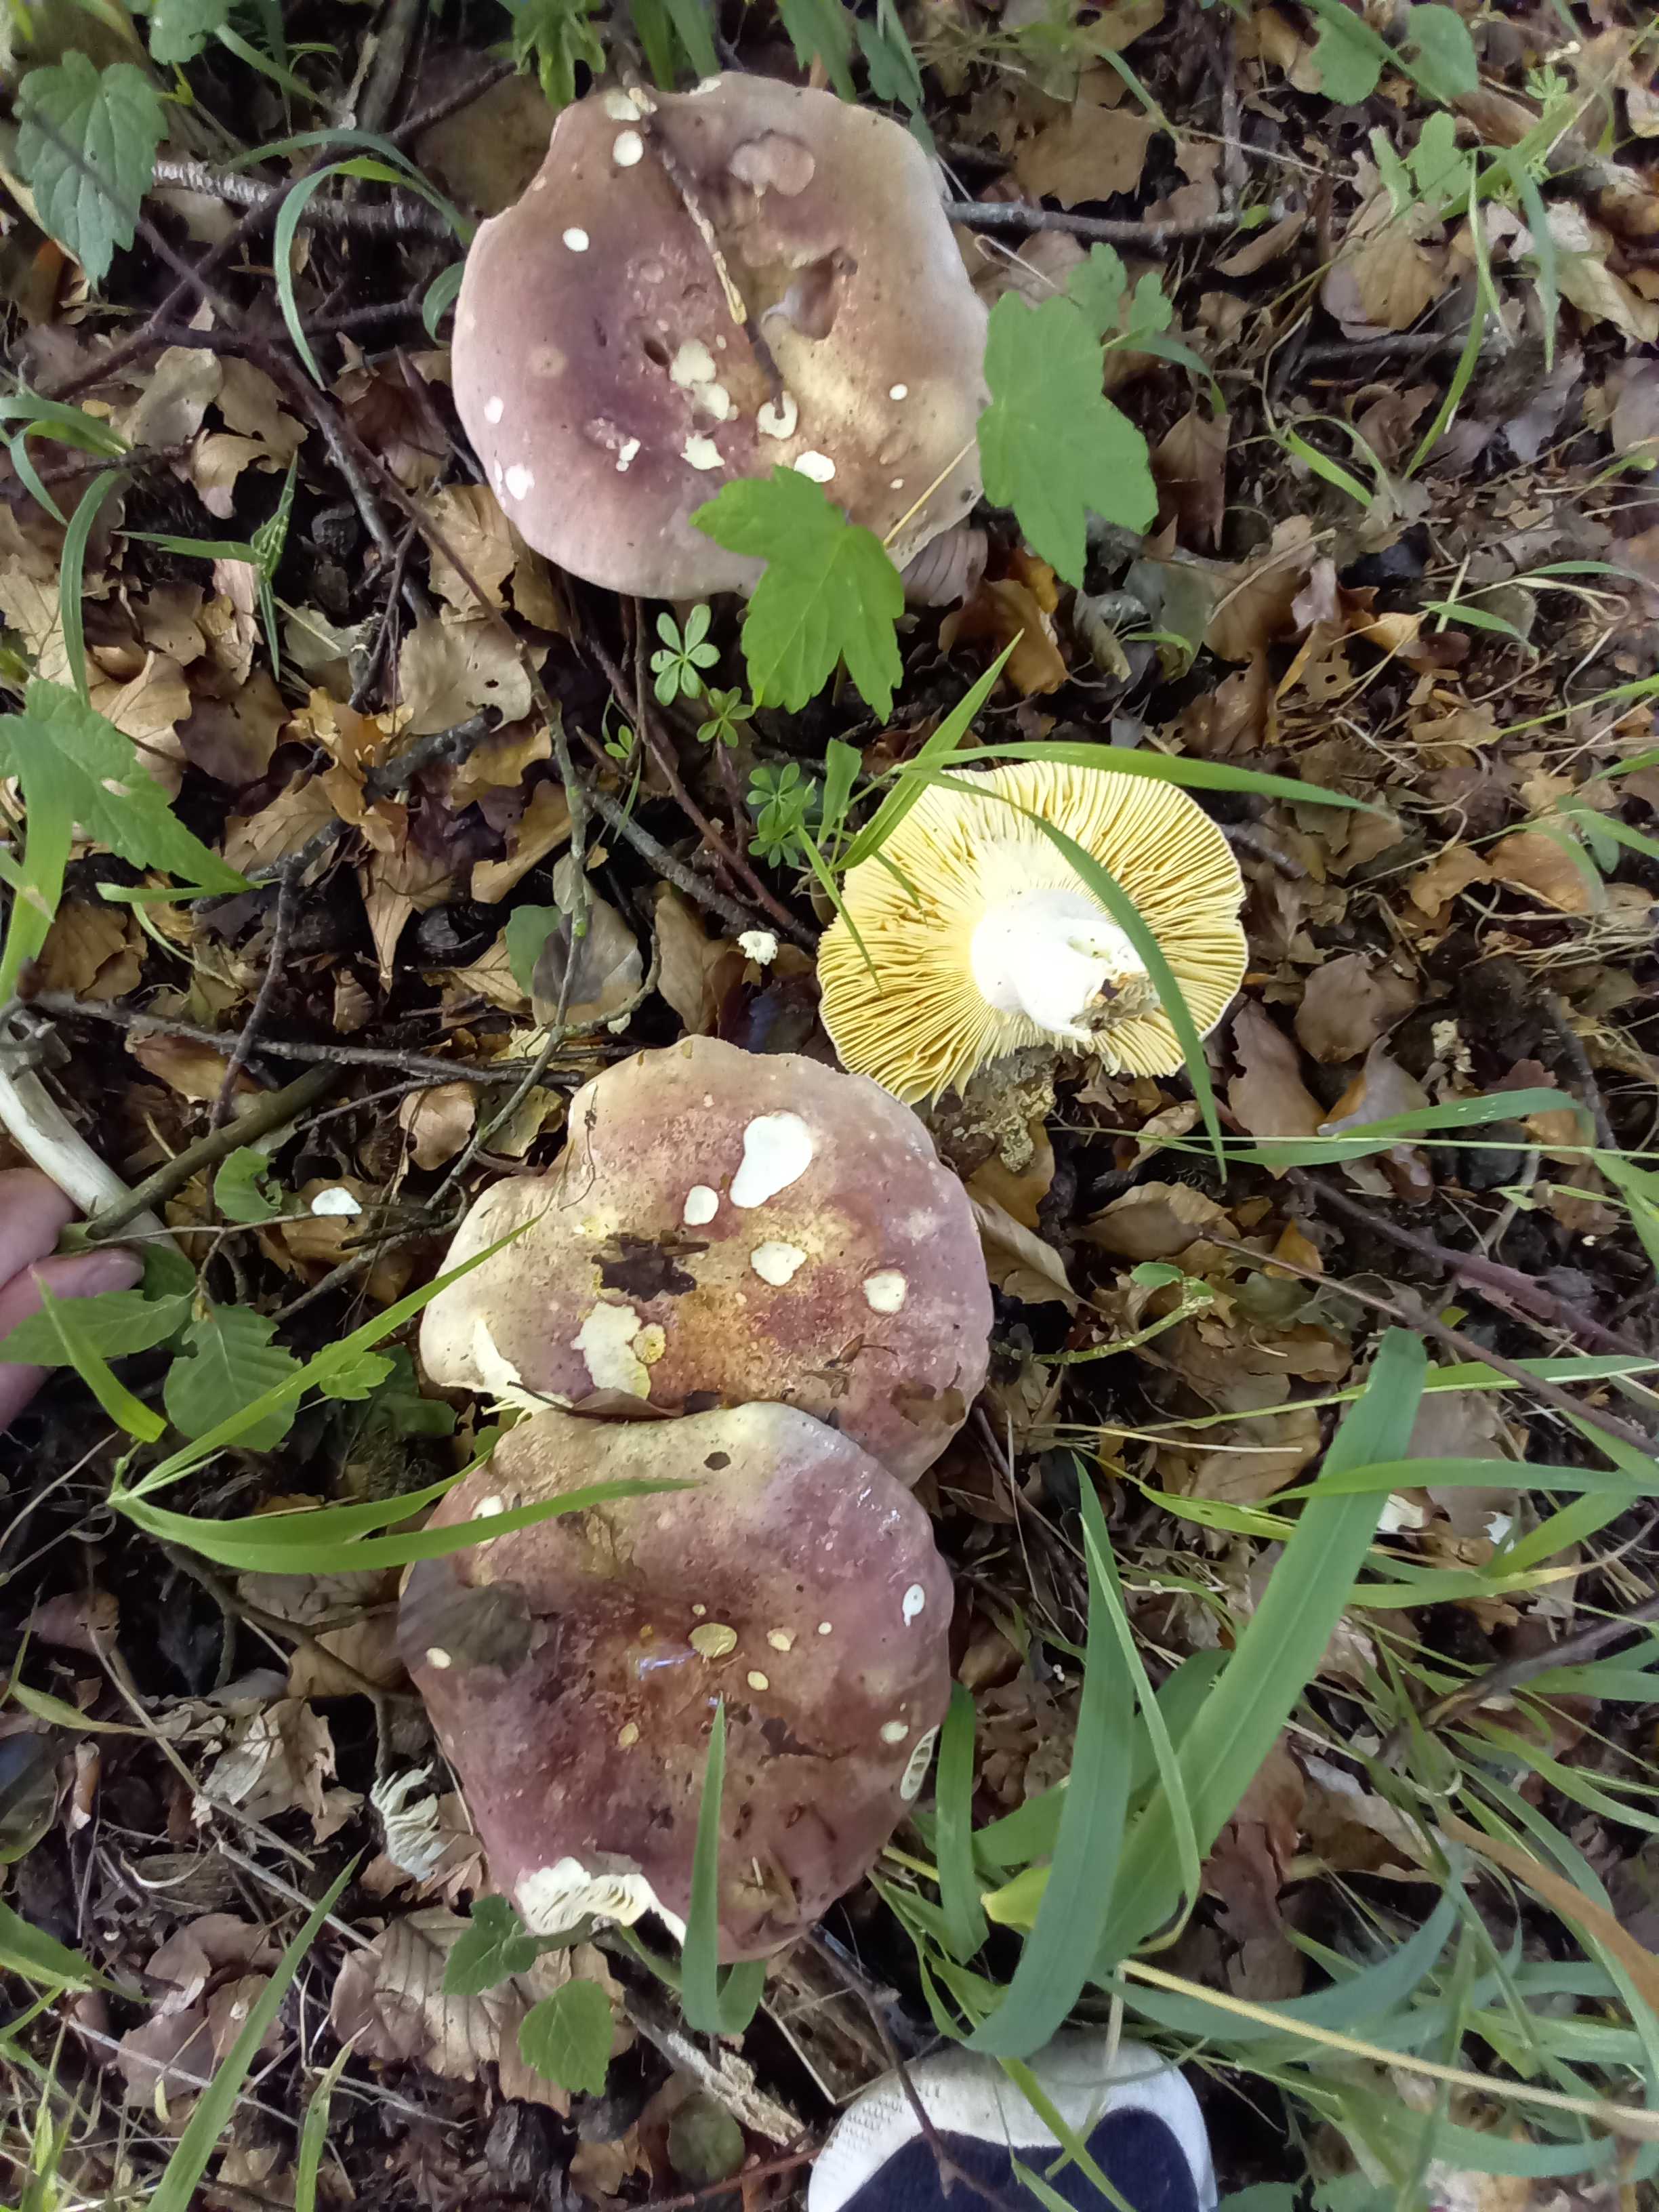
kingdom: Fungi
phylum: Basidiomycota
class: Agaricomycetes
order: Russulales
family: Russulaceae
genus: Russula
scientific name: Russula olivacea
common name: stor skørhat
